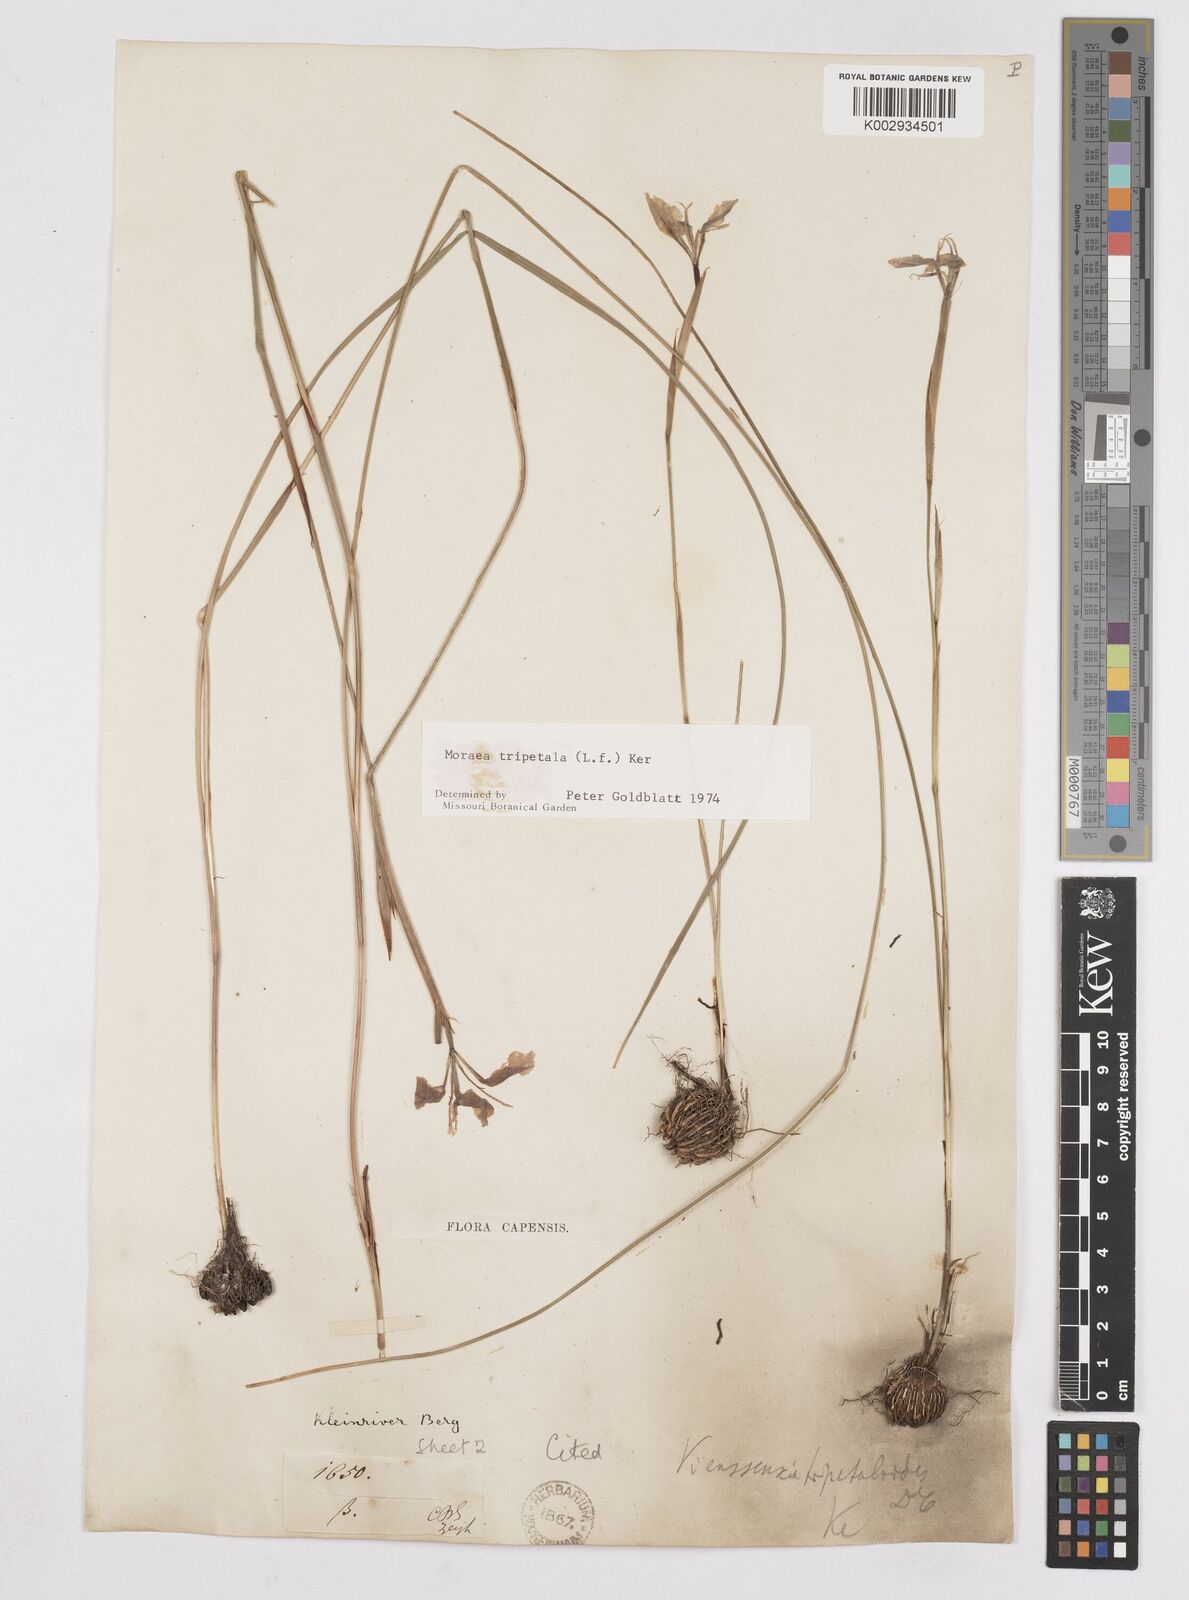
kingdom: Plantae
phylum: Tracheophyta
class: Liliopsida
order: Asparagales
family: Iridaceae
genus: Moraea
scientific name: Moraea tripetala
